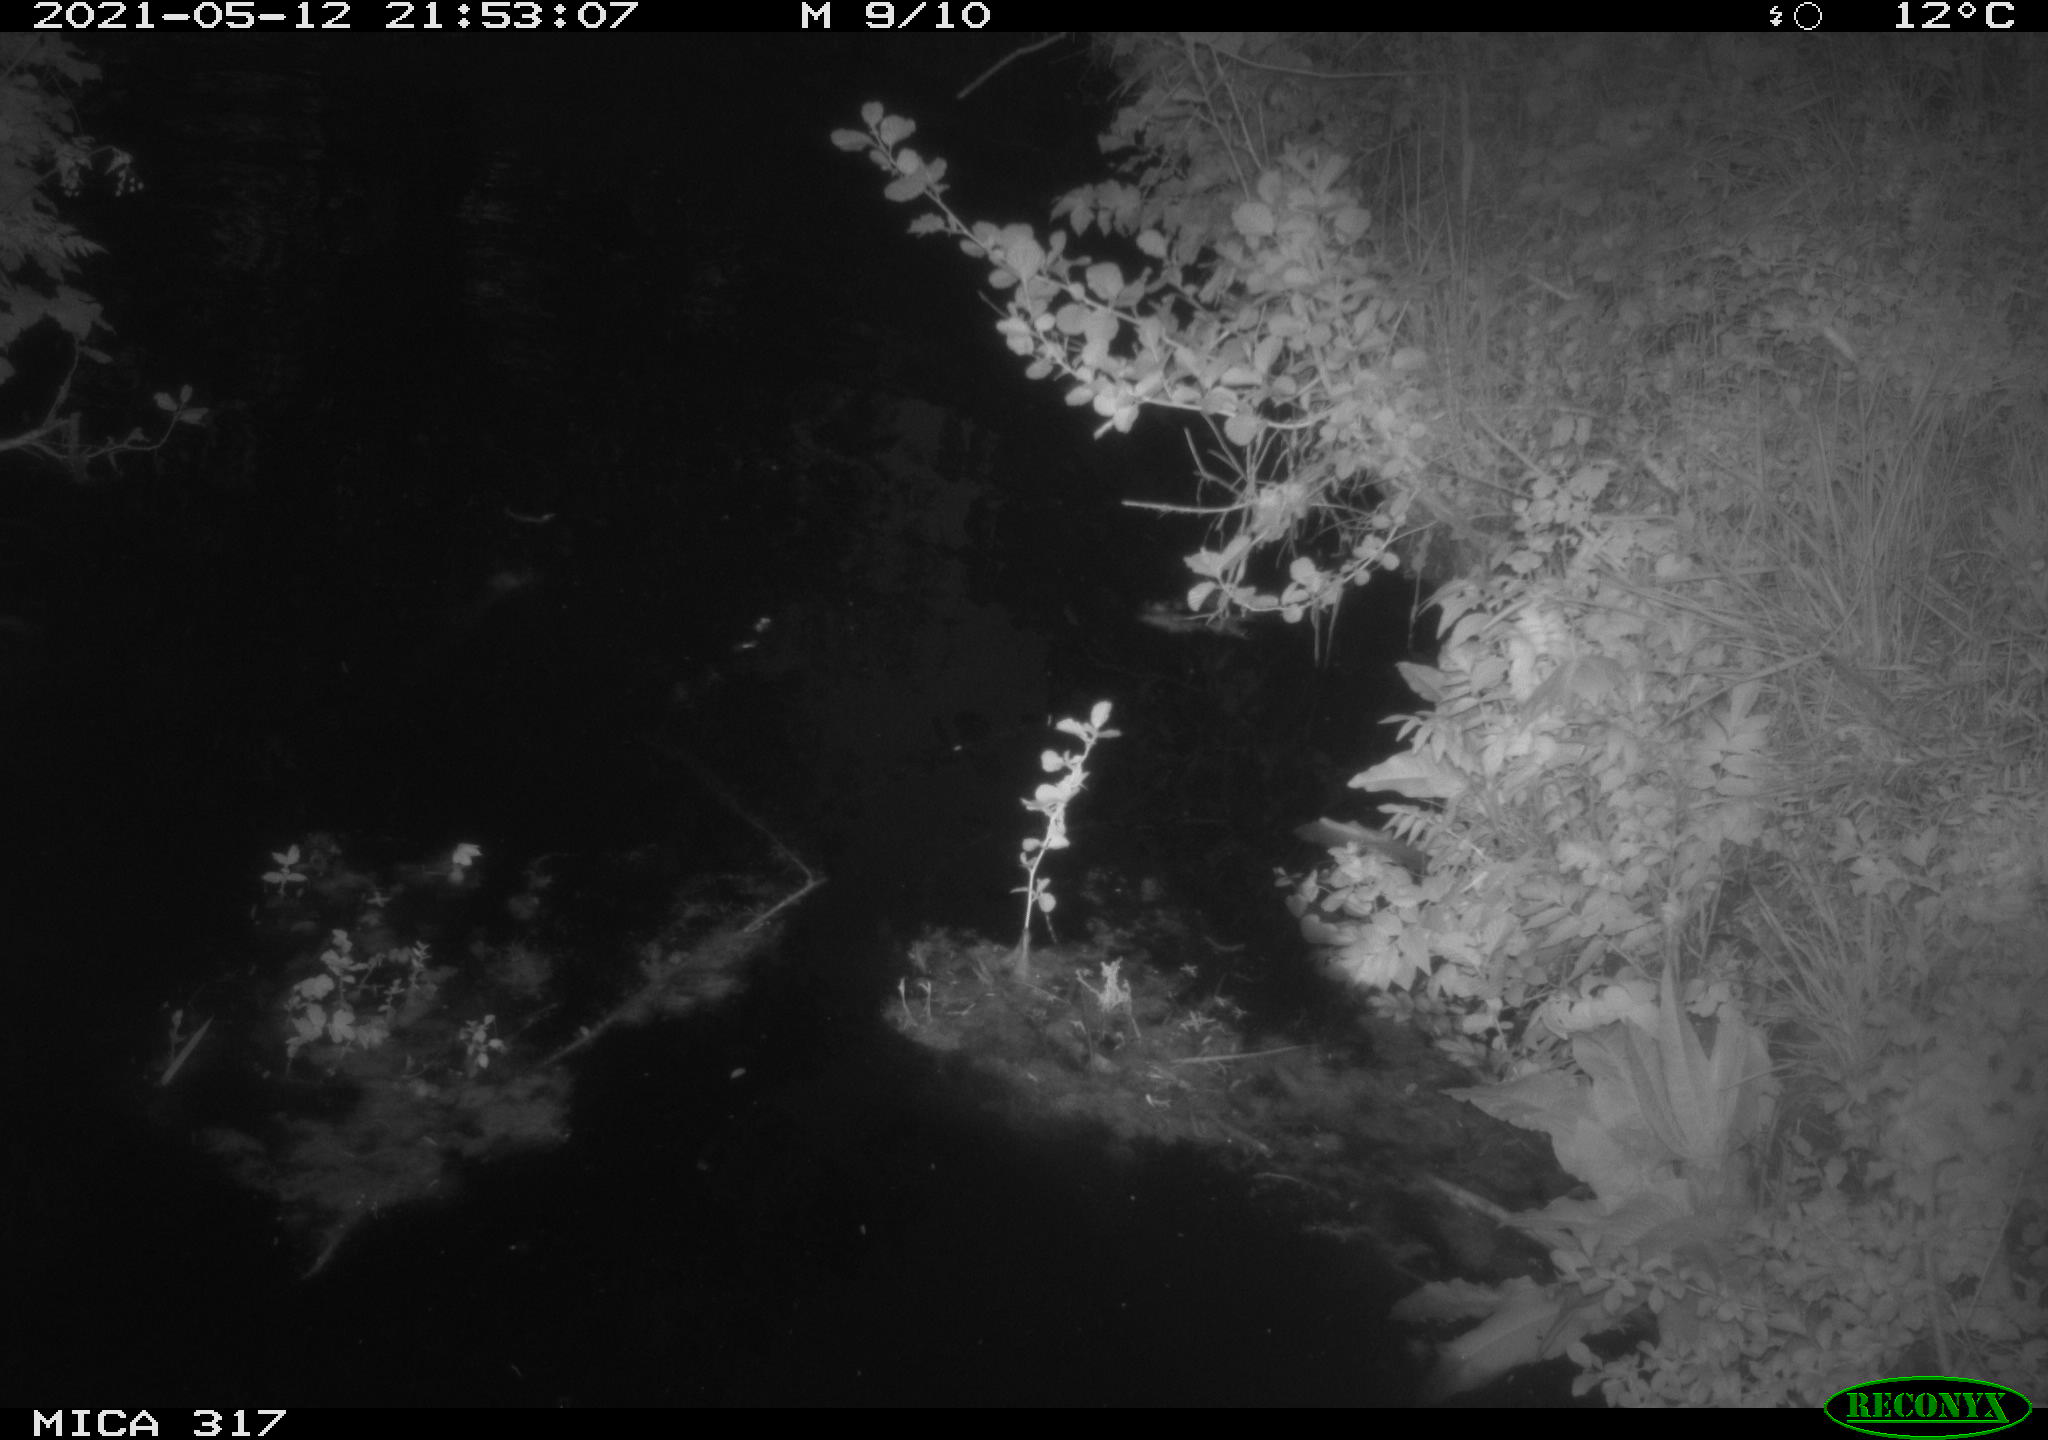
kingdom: Animalia
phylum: Chordata
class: Aves
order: Anseriformes
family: Anatidae
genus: Anas
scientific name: Anas
